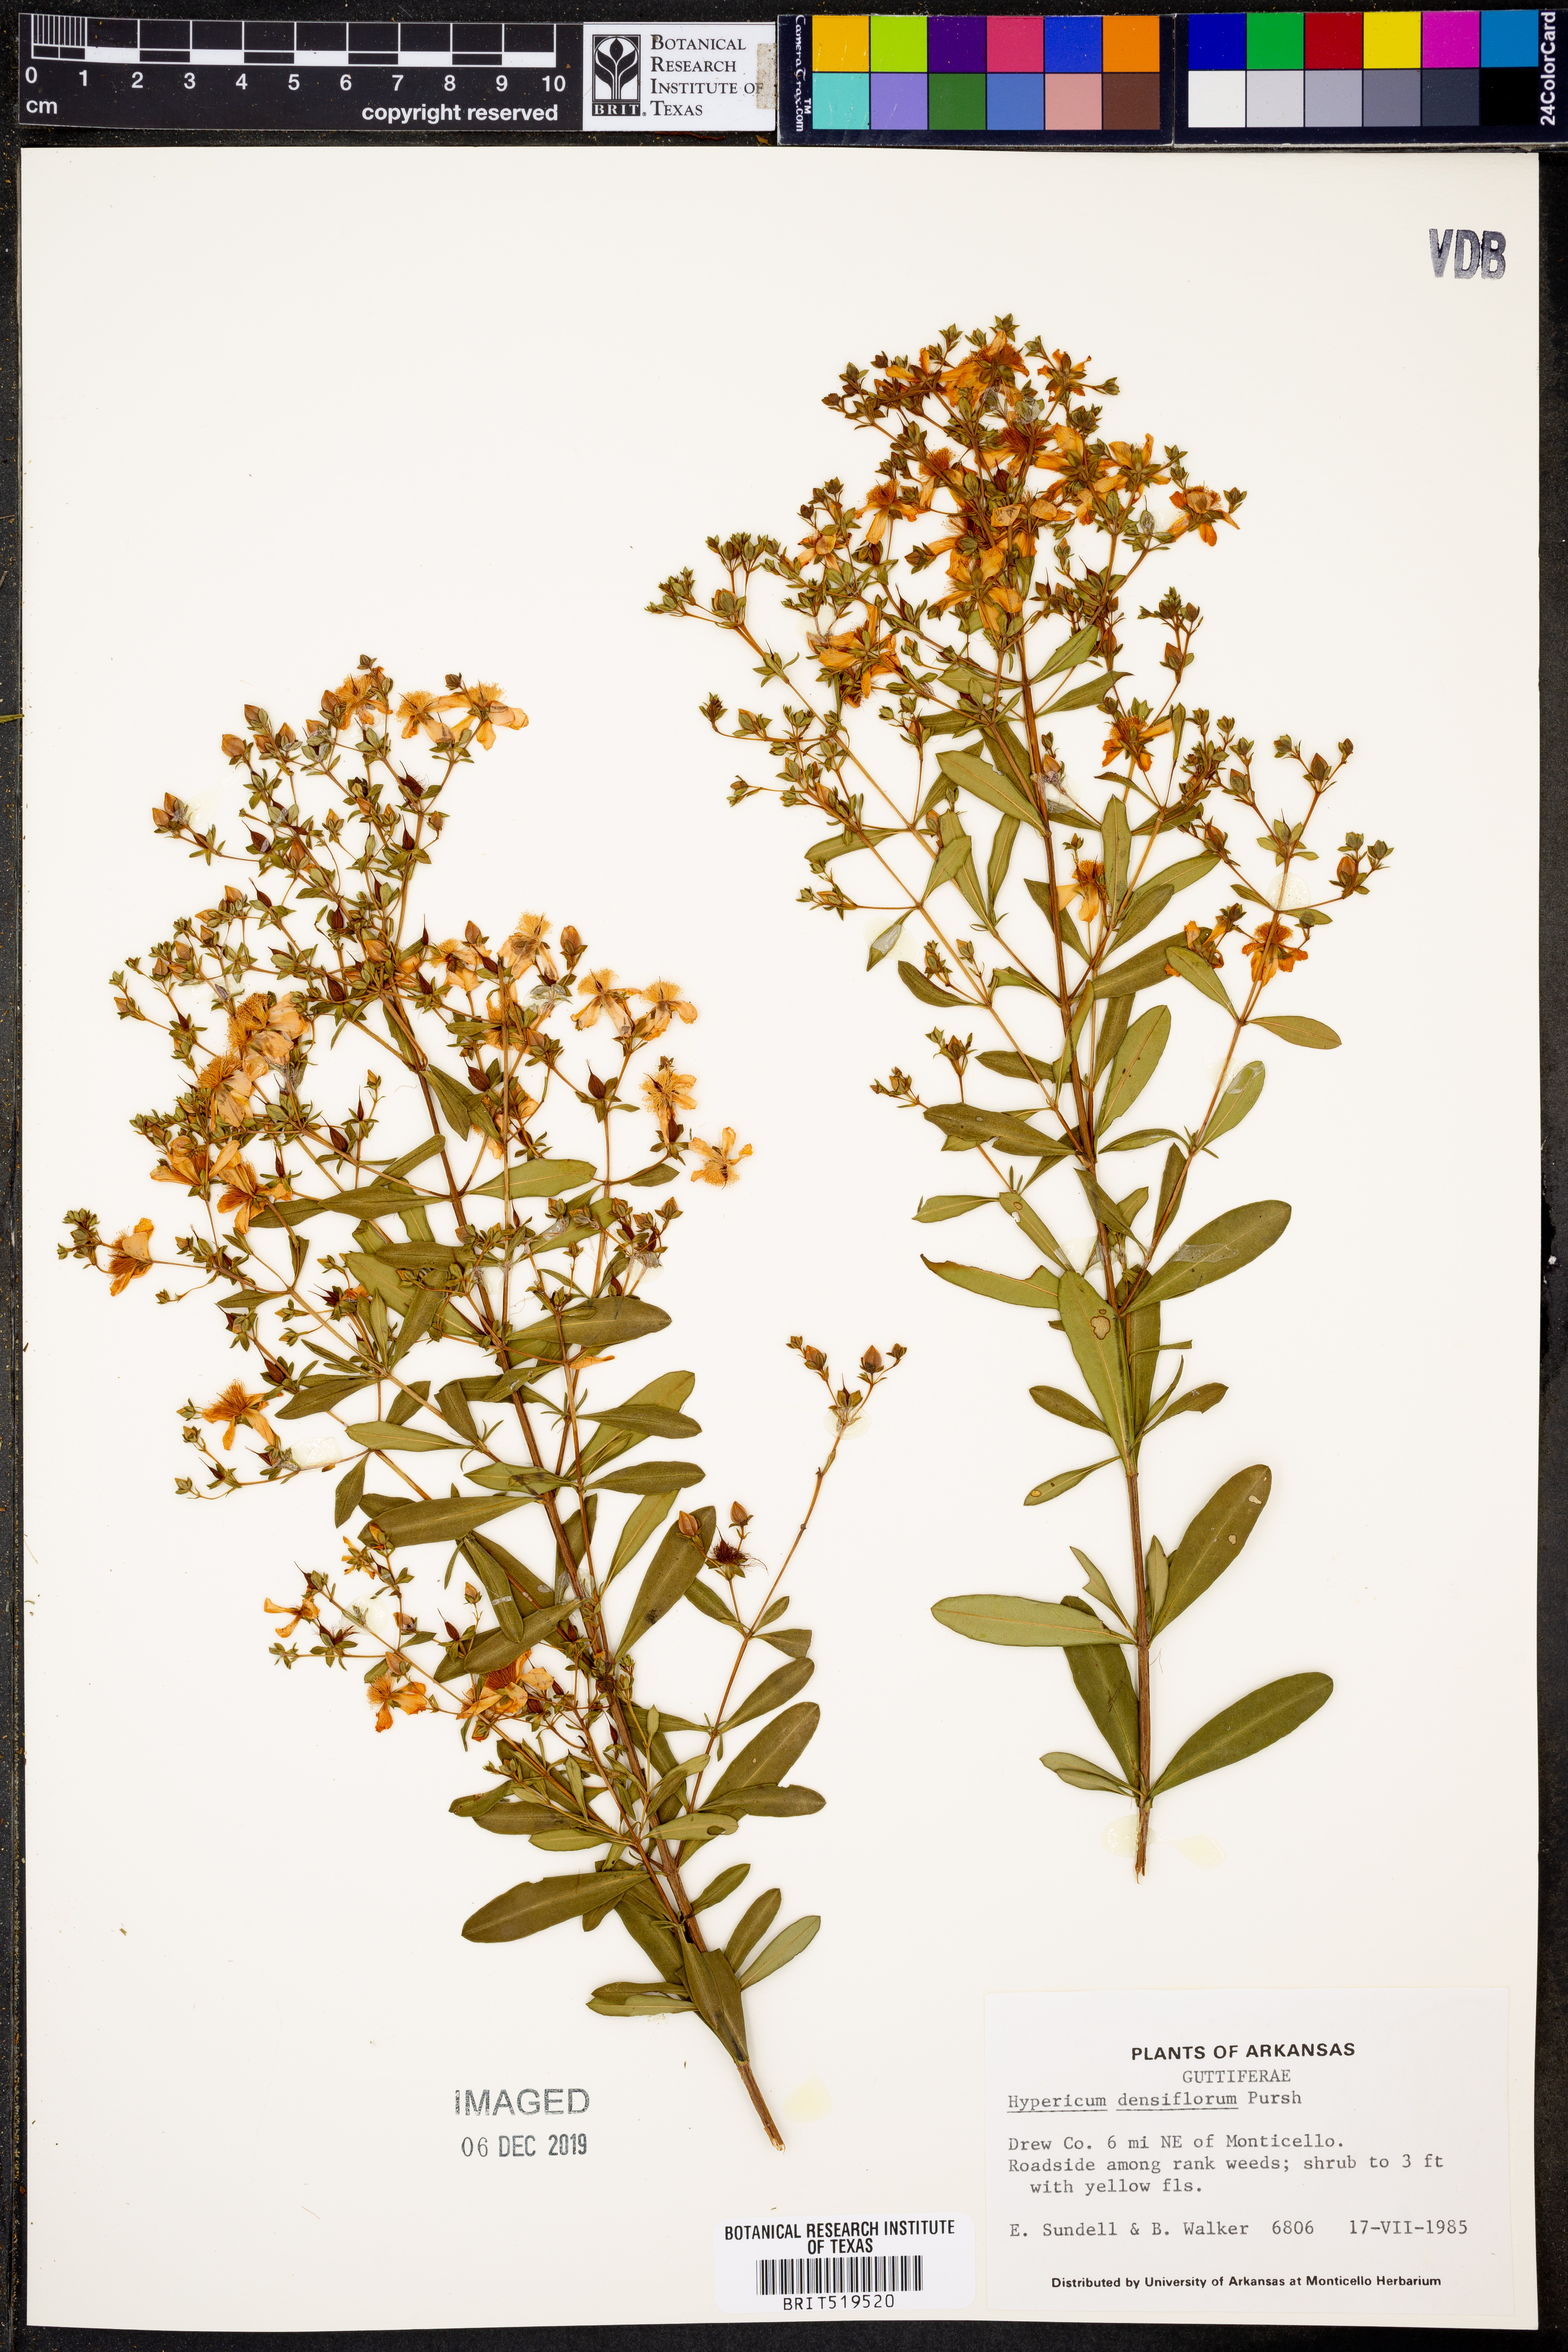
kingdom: Plantae
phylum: Tracheophyta
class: Magnoliopsida
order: Malpighiales
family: Hypericaceae
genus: Hypericum
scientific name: Hypericum densiflorum
